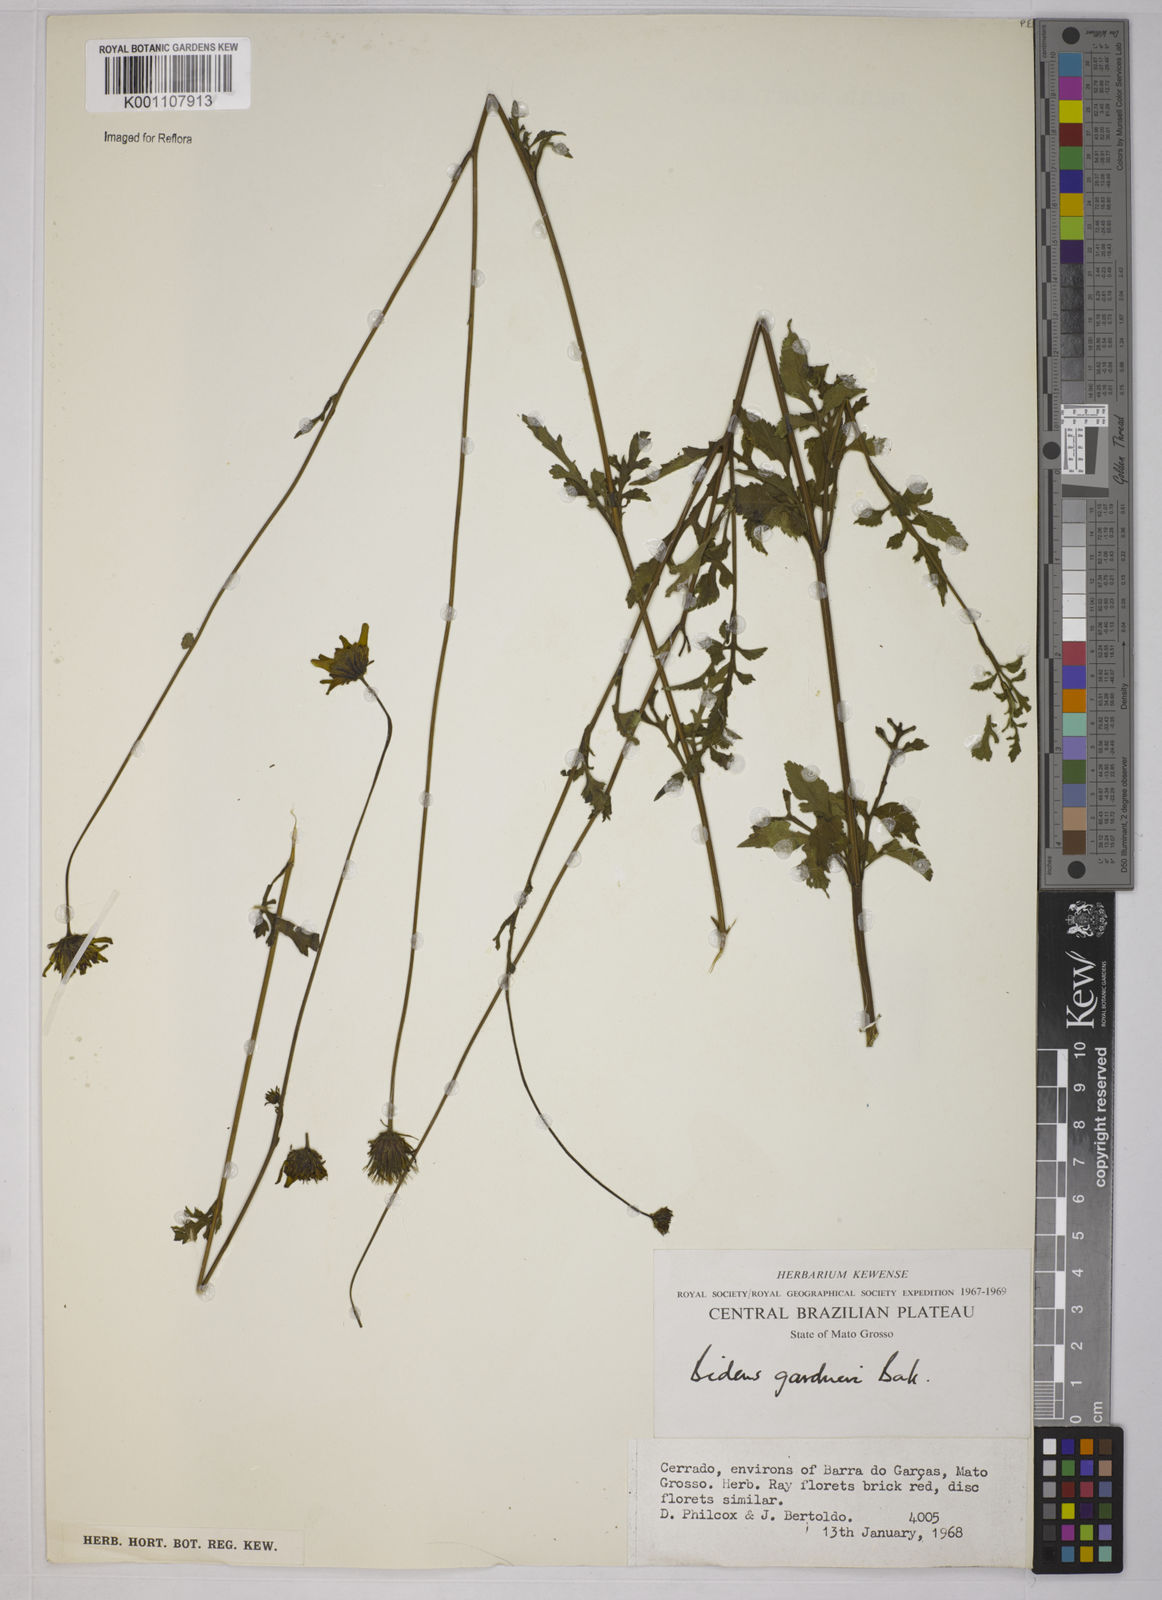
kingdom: Plantae
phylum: Tracheophyta
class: Magnoliopsida
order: Asterales
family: Asteraceae
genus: Bidens
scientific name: Bidens gardneri
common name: Ridge beggartick
